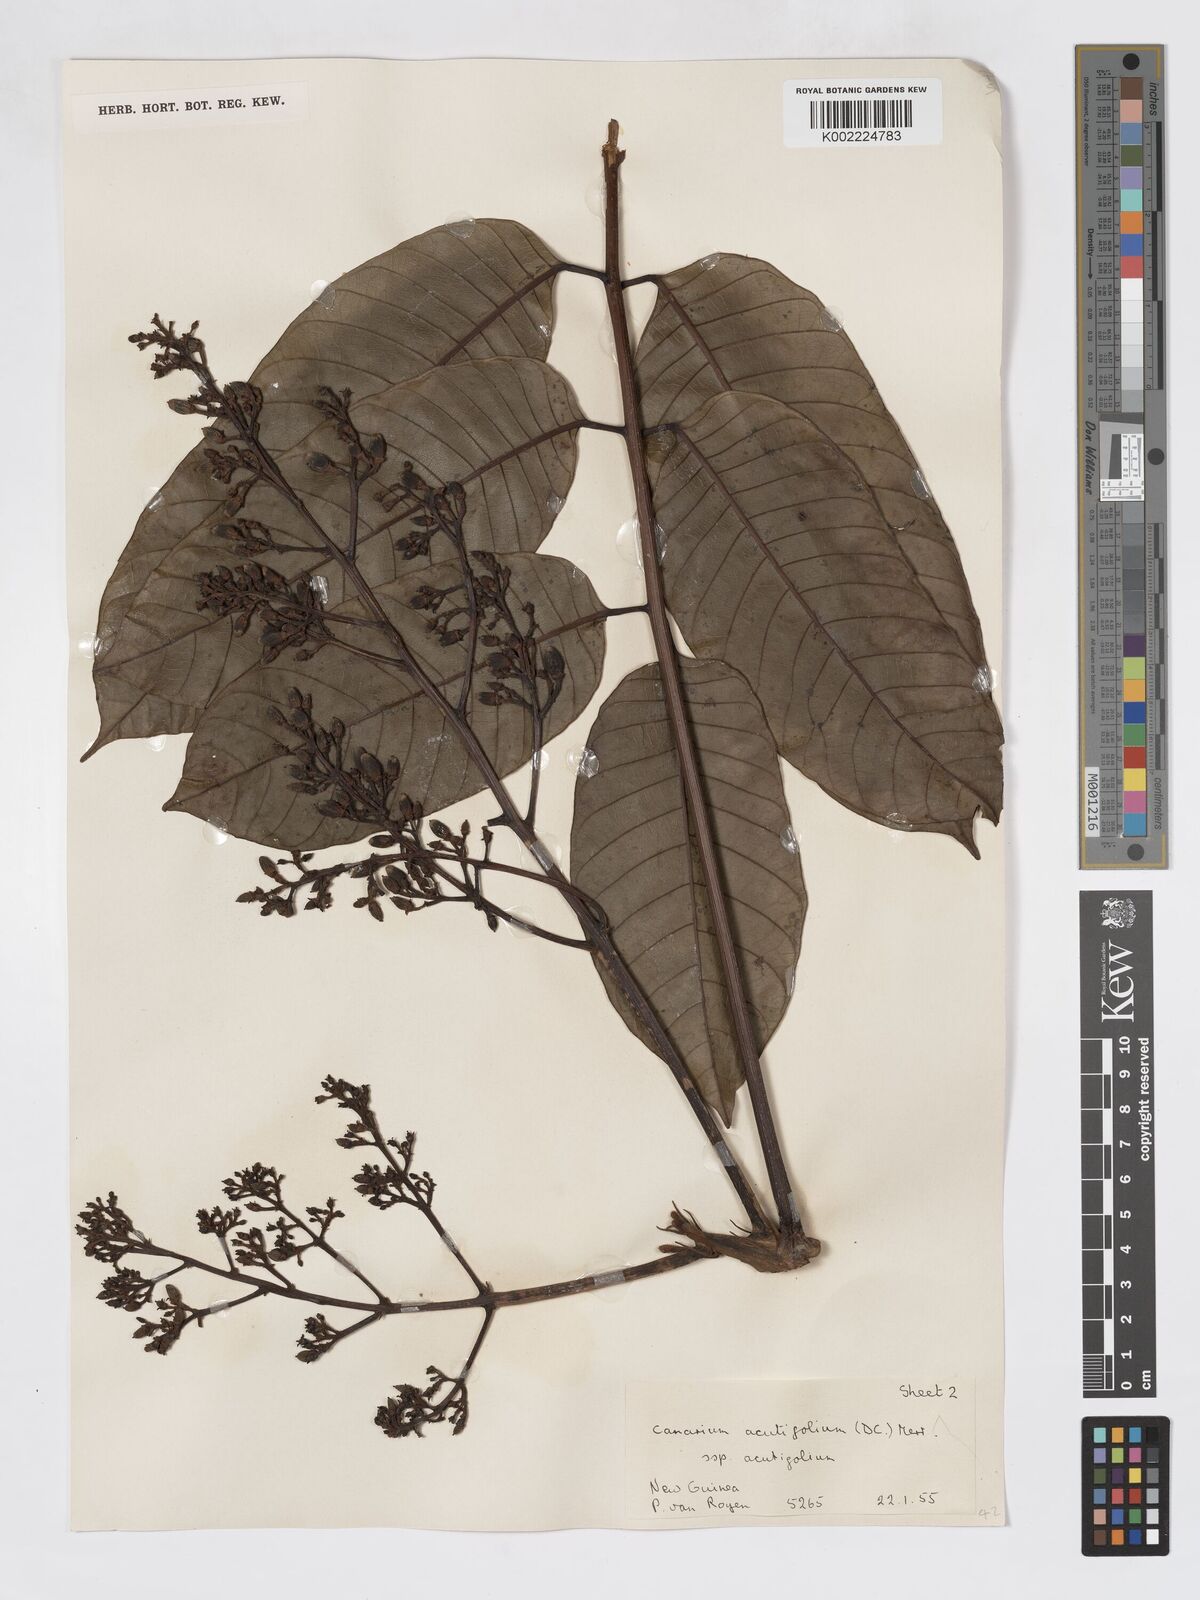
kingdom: Plantae
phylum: Tracheophyta
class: Magnoliopsida
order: Sapindales
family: Burseraceae
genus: Canarium
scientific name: Canarium acutifolium
